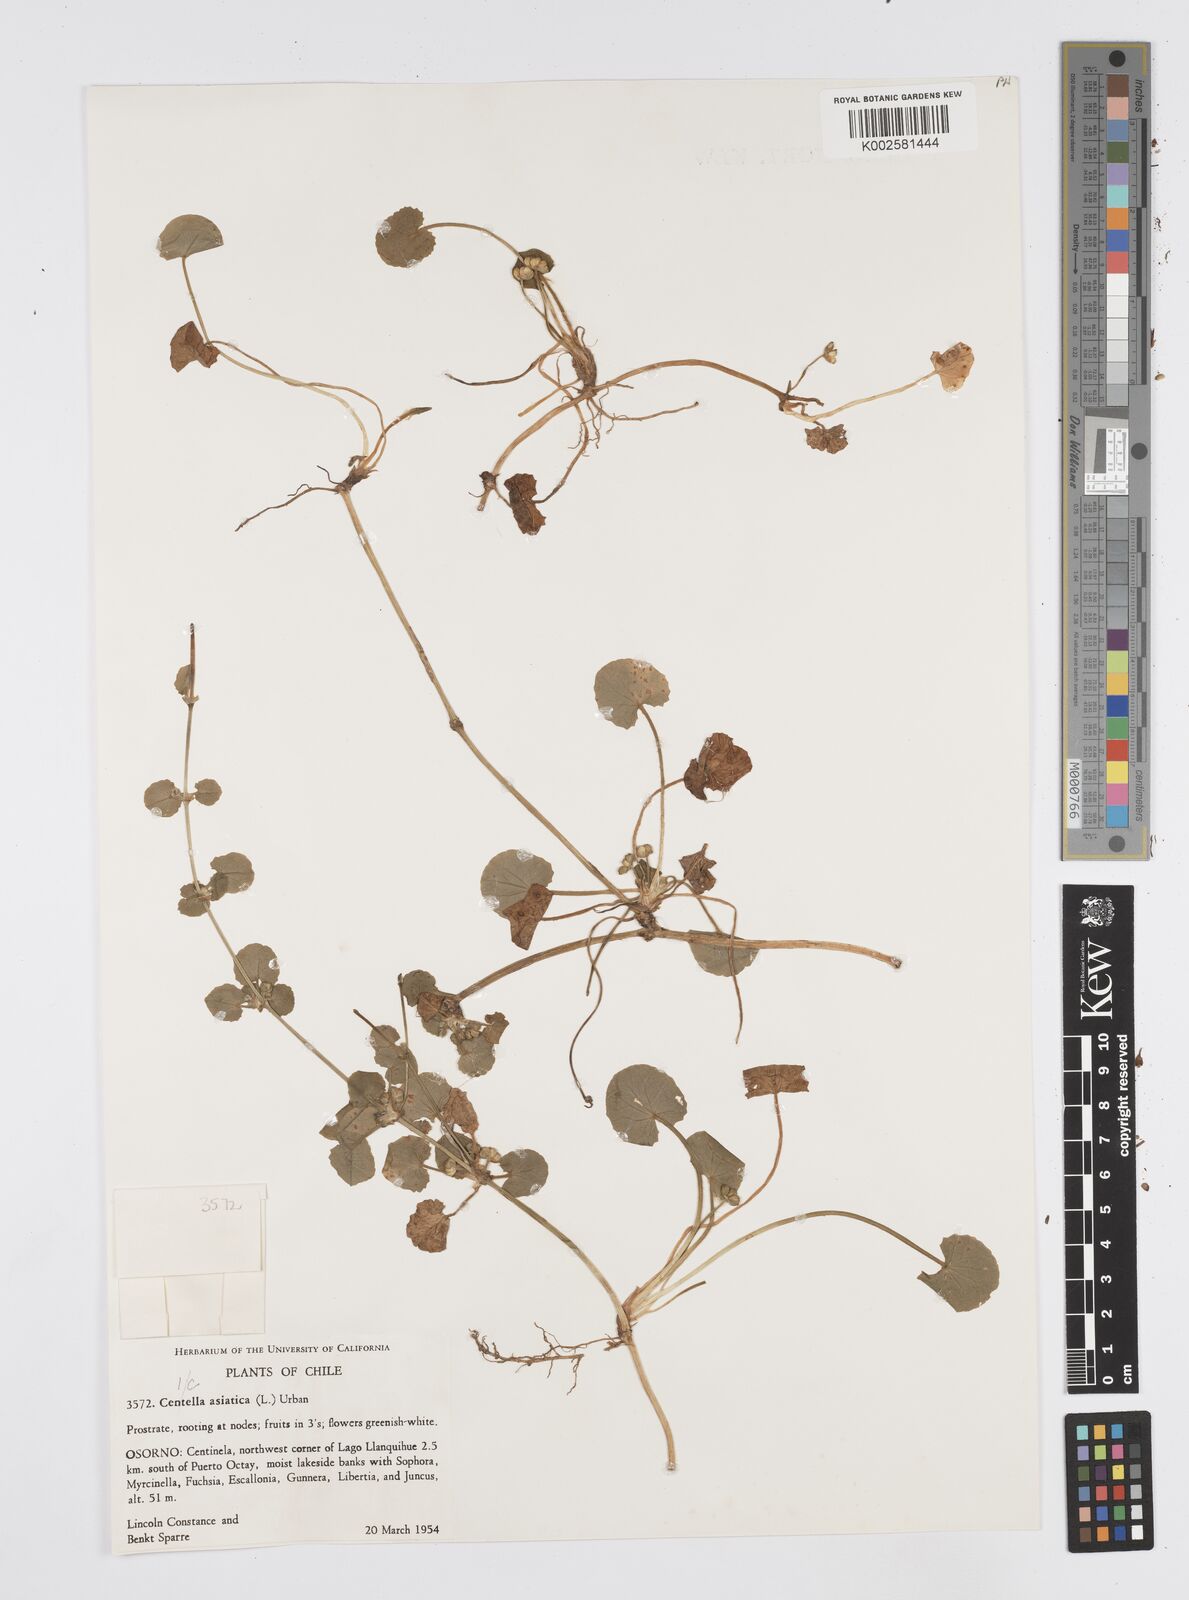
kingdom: Plantae
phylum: Tracheophyta
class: Magnoliopsida
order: Apiales
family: Apiaceae
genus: Centella
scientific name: Centella asiatica
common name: Spadeleaf
